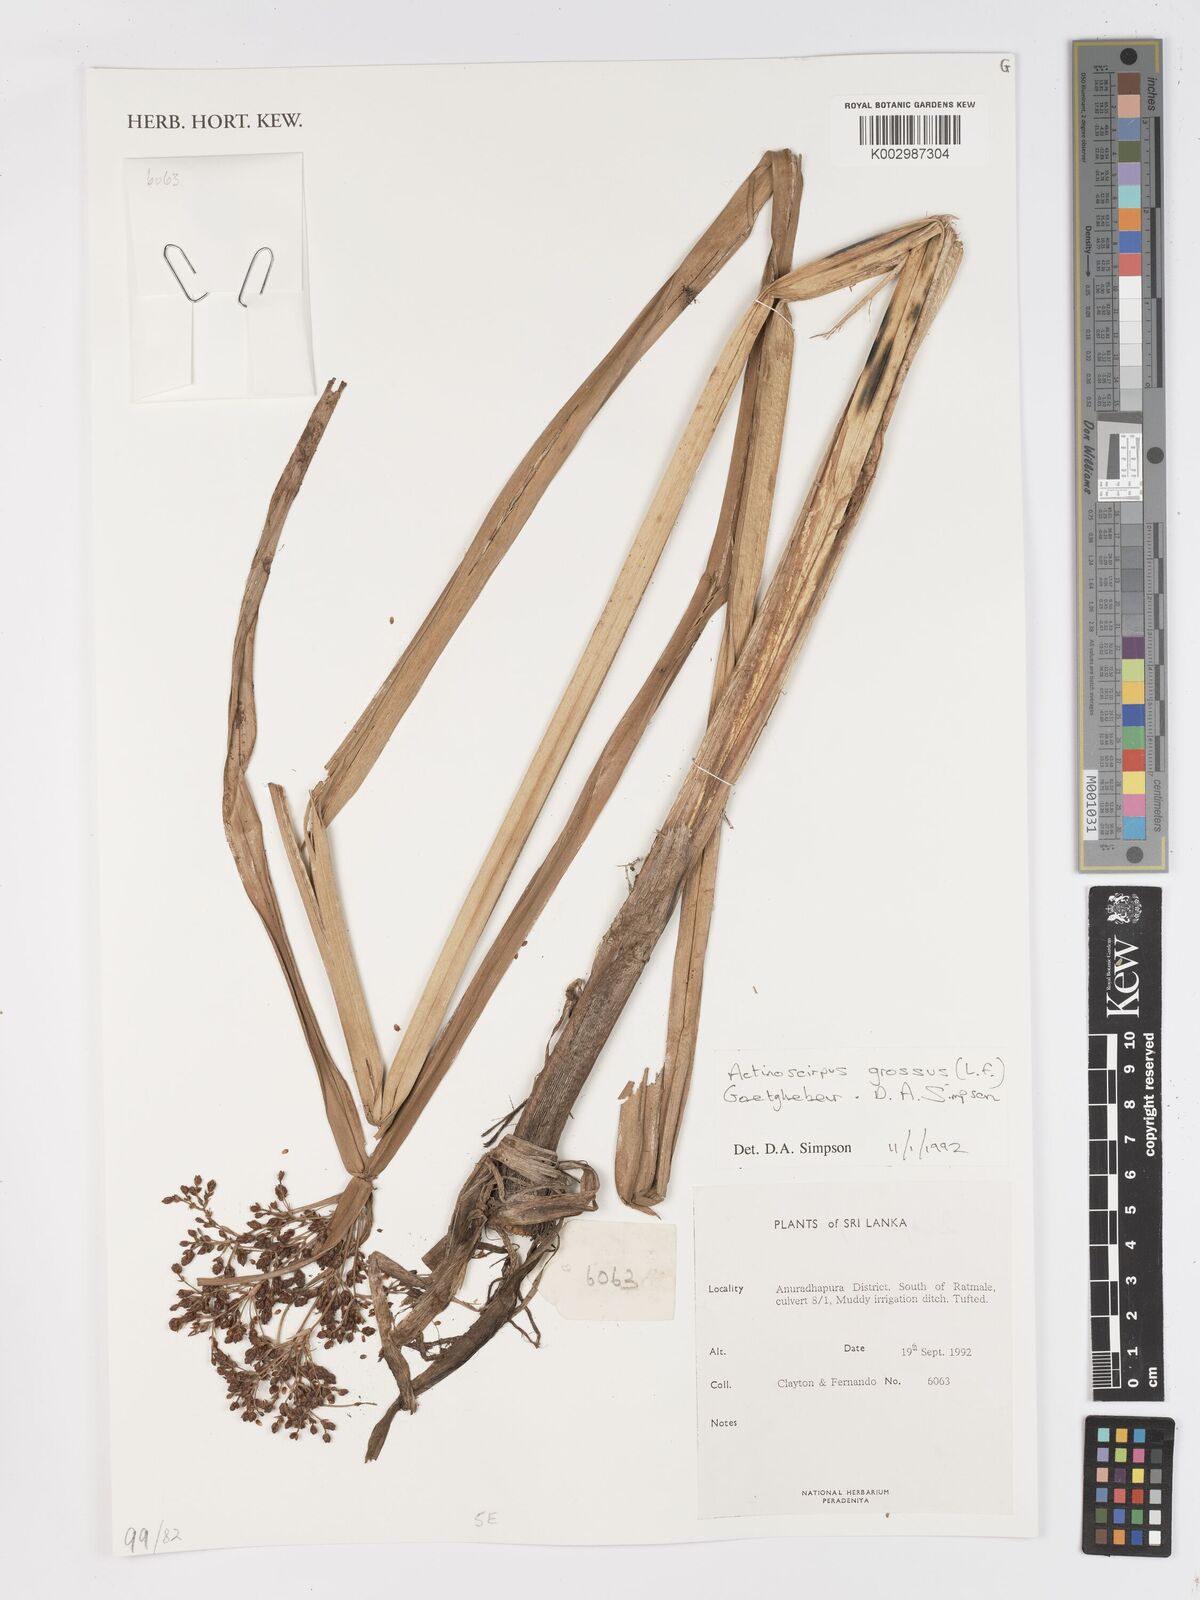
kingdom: Plantae
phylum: Tracheophyta
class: Liliopsida
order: Poales
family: Cyperaceae
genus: Actinoscirpus
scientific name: Actinoscirpus grossus
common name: Giant bur rush
